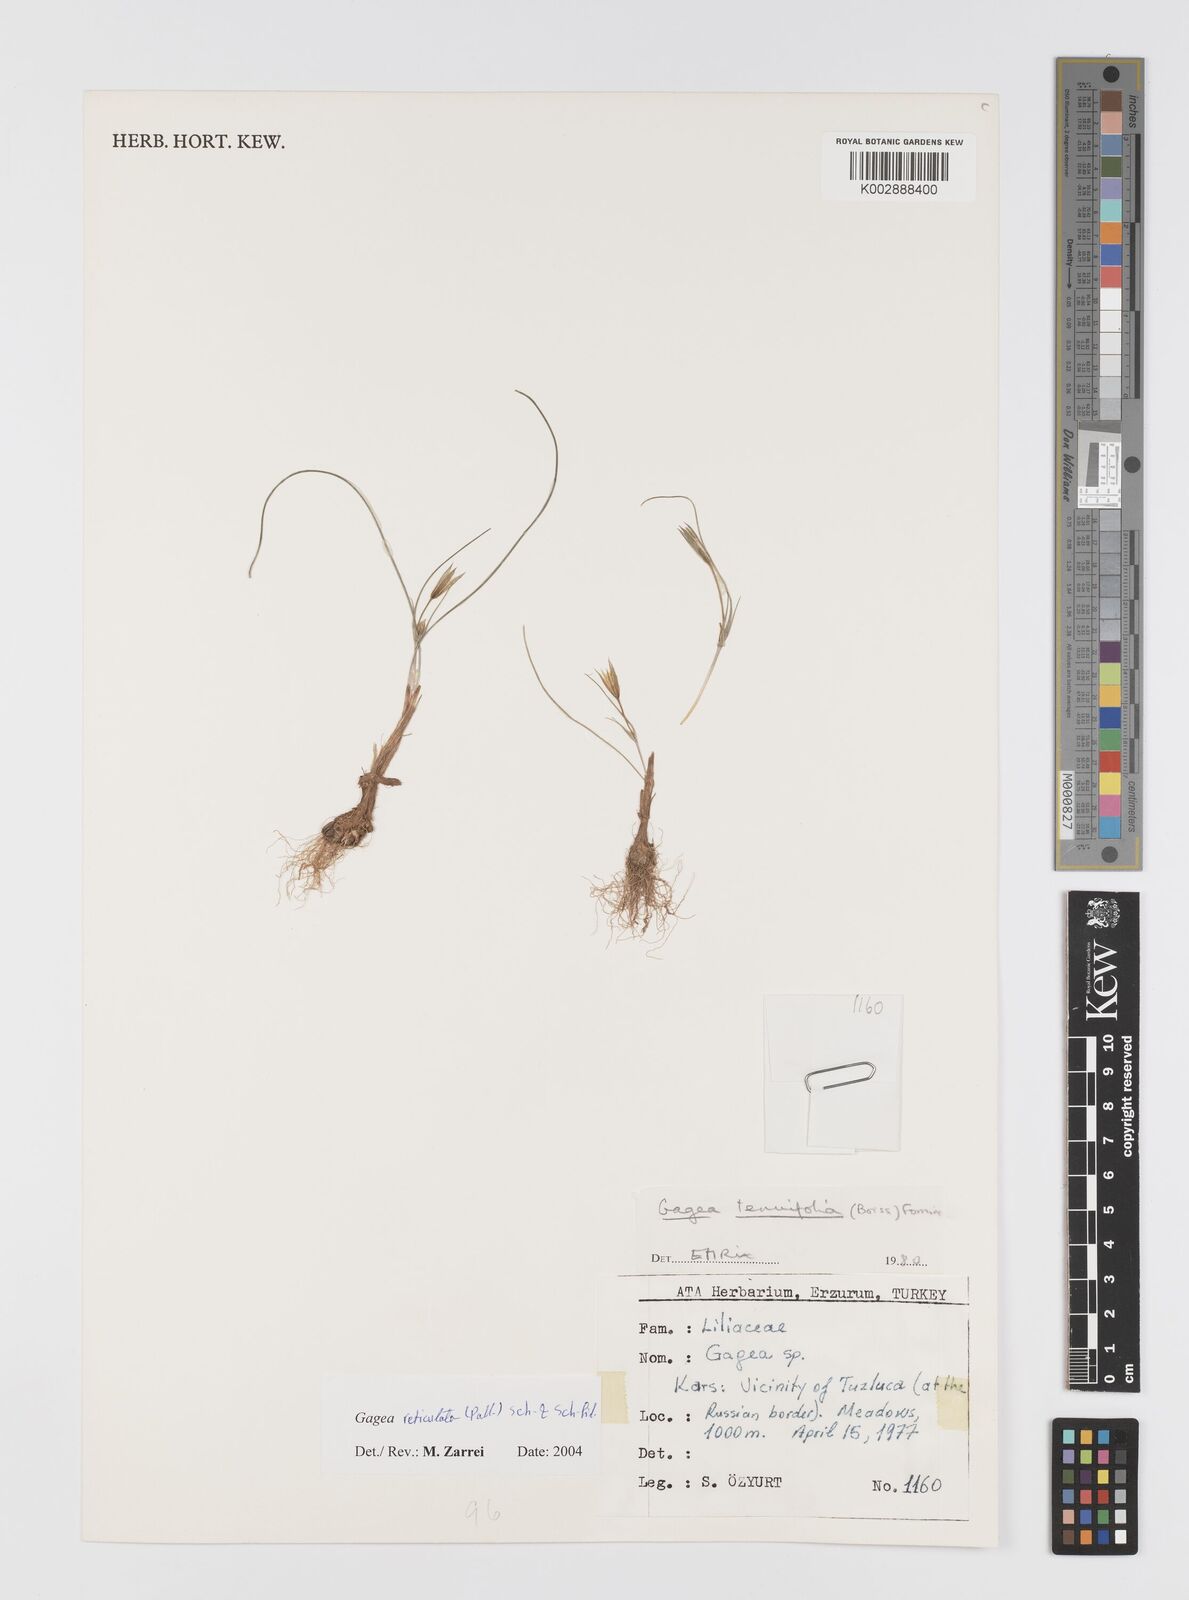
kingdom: Plantae
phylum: Tracheophyta
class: Liliopsida
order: Liliales
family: Liliaceae
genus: Gagea
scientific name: Gagea reticulata
